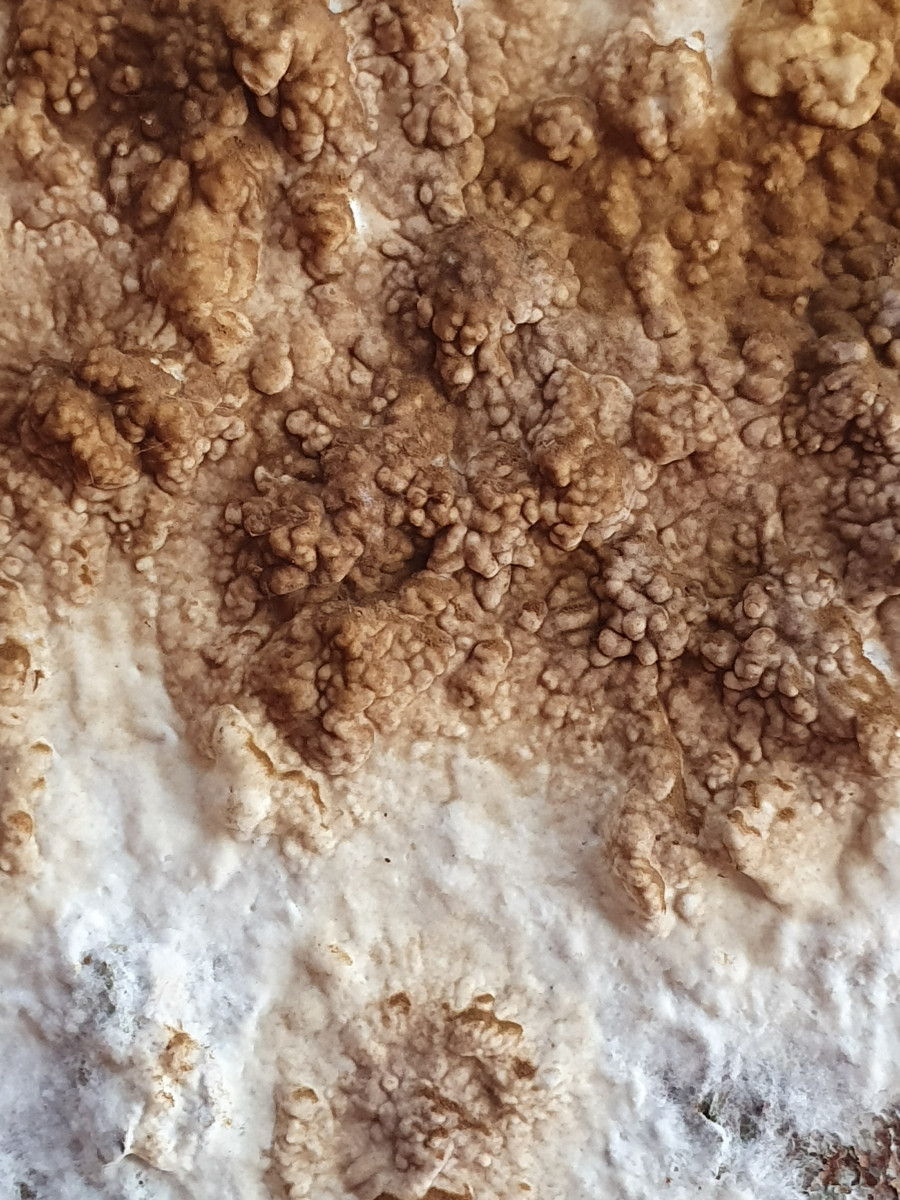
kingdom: Fungi
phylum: Basidiomycota
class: Agaricomycetes
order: Boletales
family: Coniophoraceae
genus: Coniophora
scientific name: Coniophora puteana
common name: gul tømmersvamp
